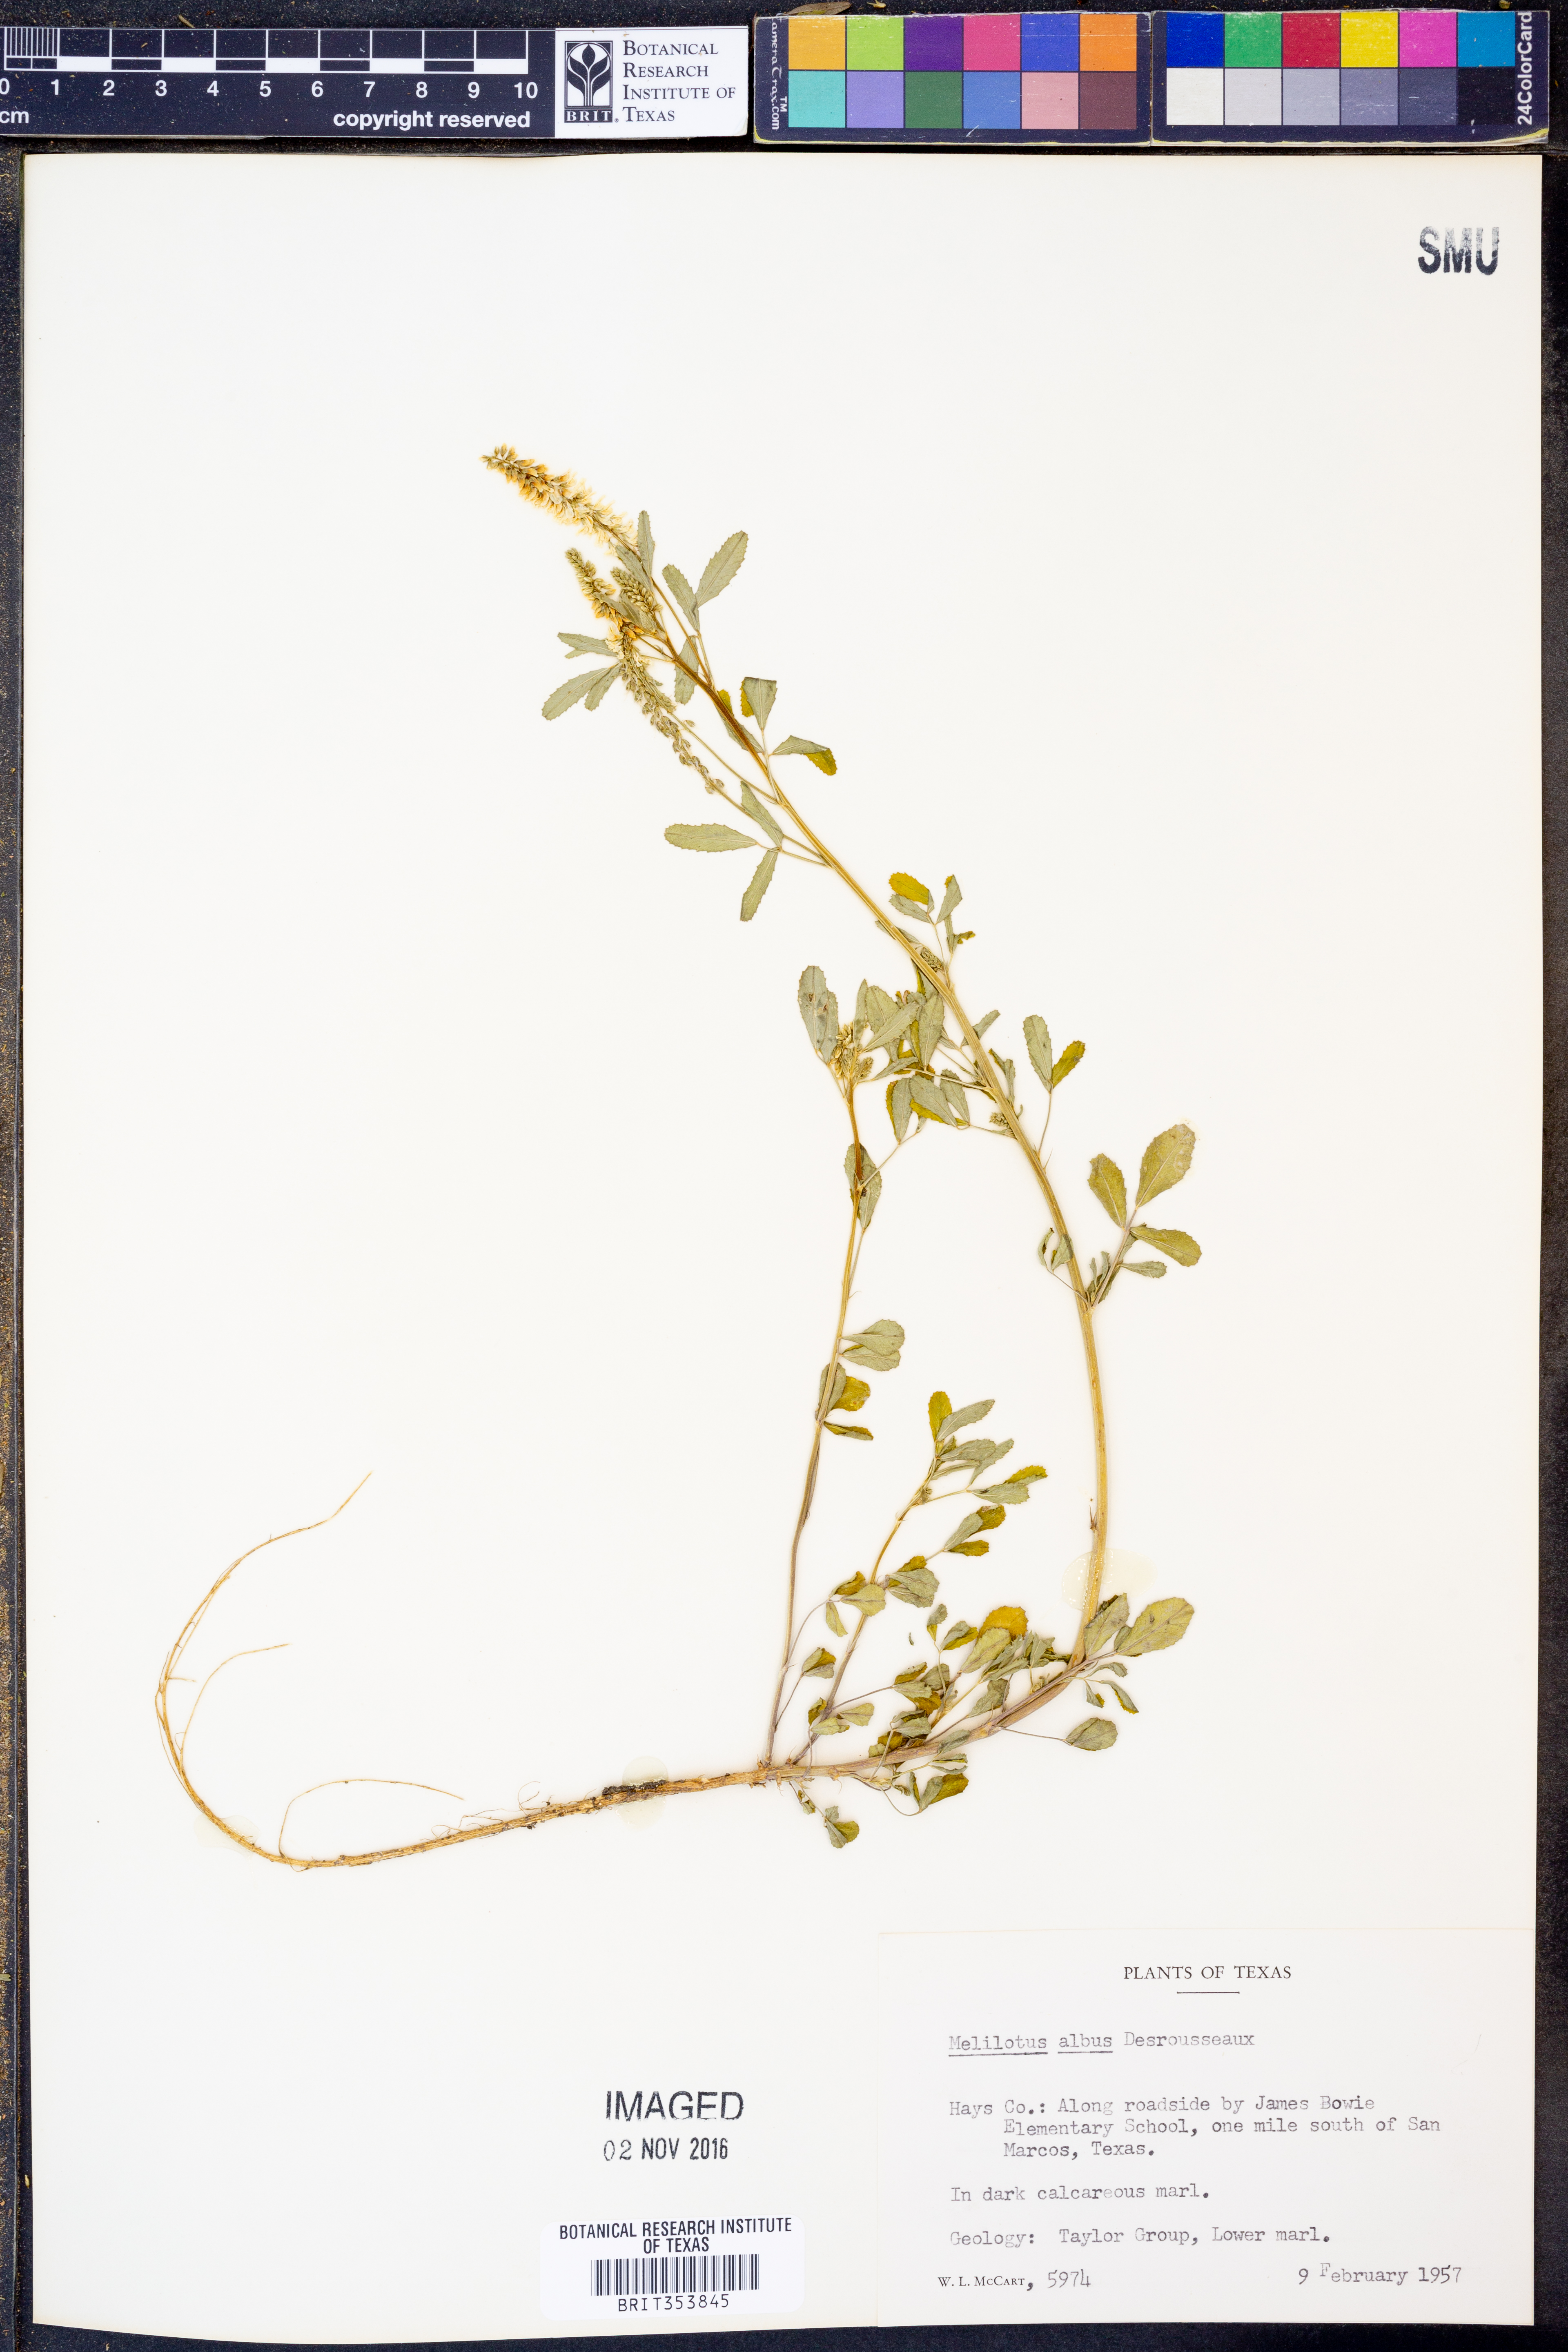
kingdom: Plantae
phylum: Tracheophyta
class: Magnoliopsida
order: Fabales
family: Fabaceae
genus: Melilotus
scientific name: Melilotus albus
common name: White melilot
